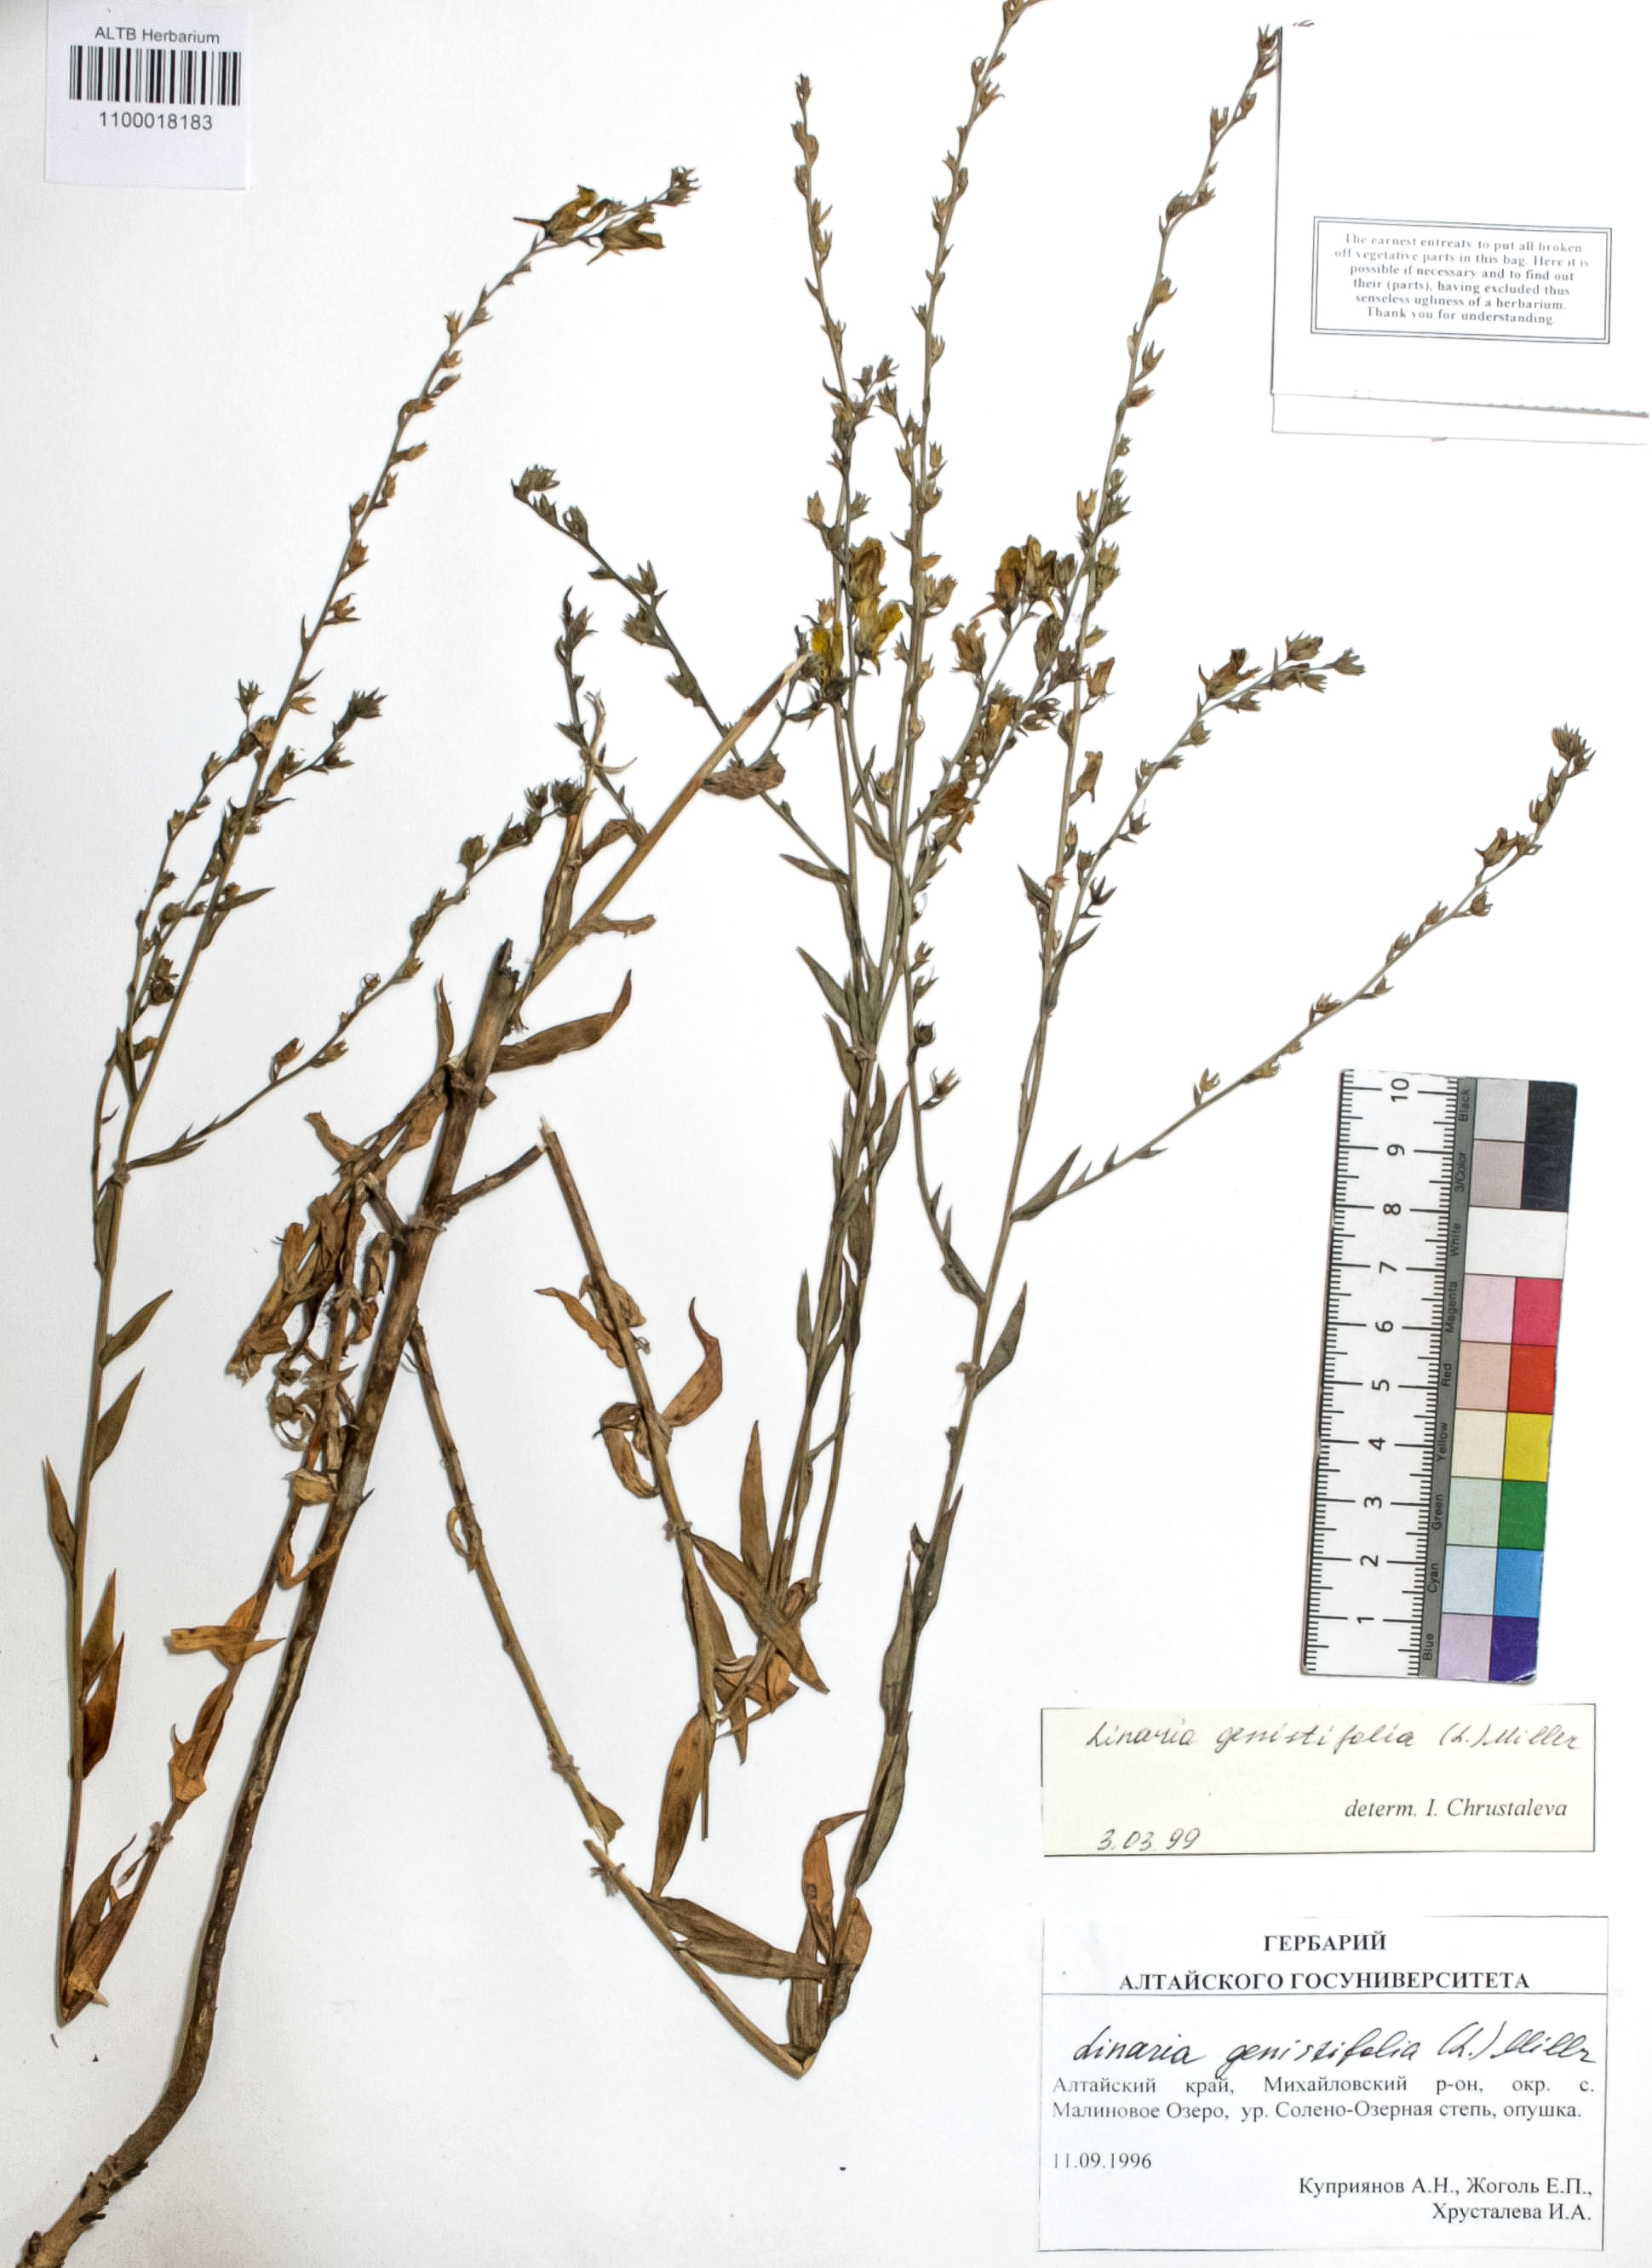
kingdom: Plantae
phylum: Tracheophyta
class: Magnoliopsida
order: Lamiales
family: Plantaginaceae
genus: Linaria
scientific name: Linaria genistifolia
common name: Broomleaf toadflax
